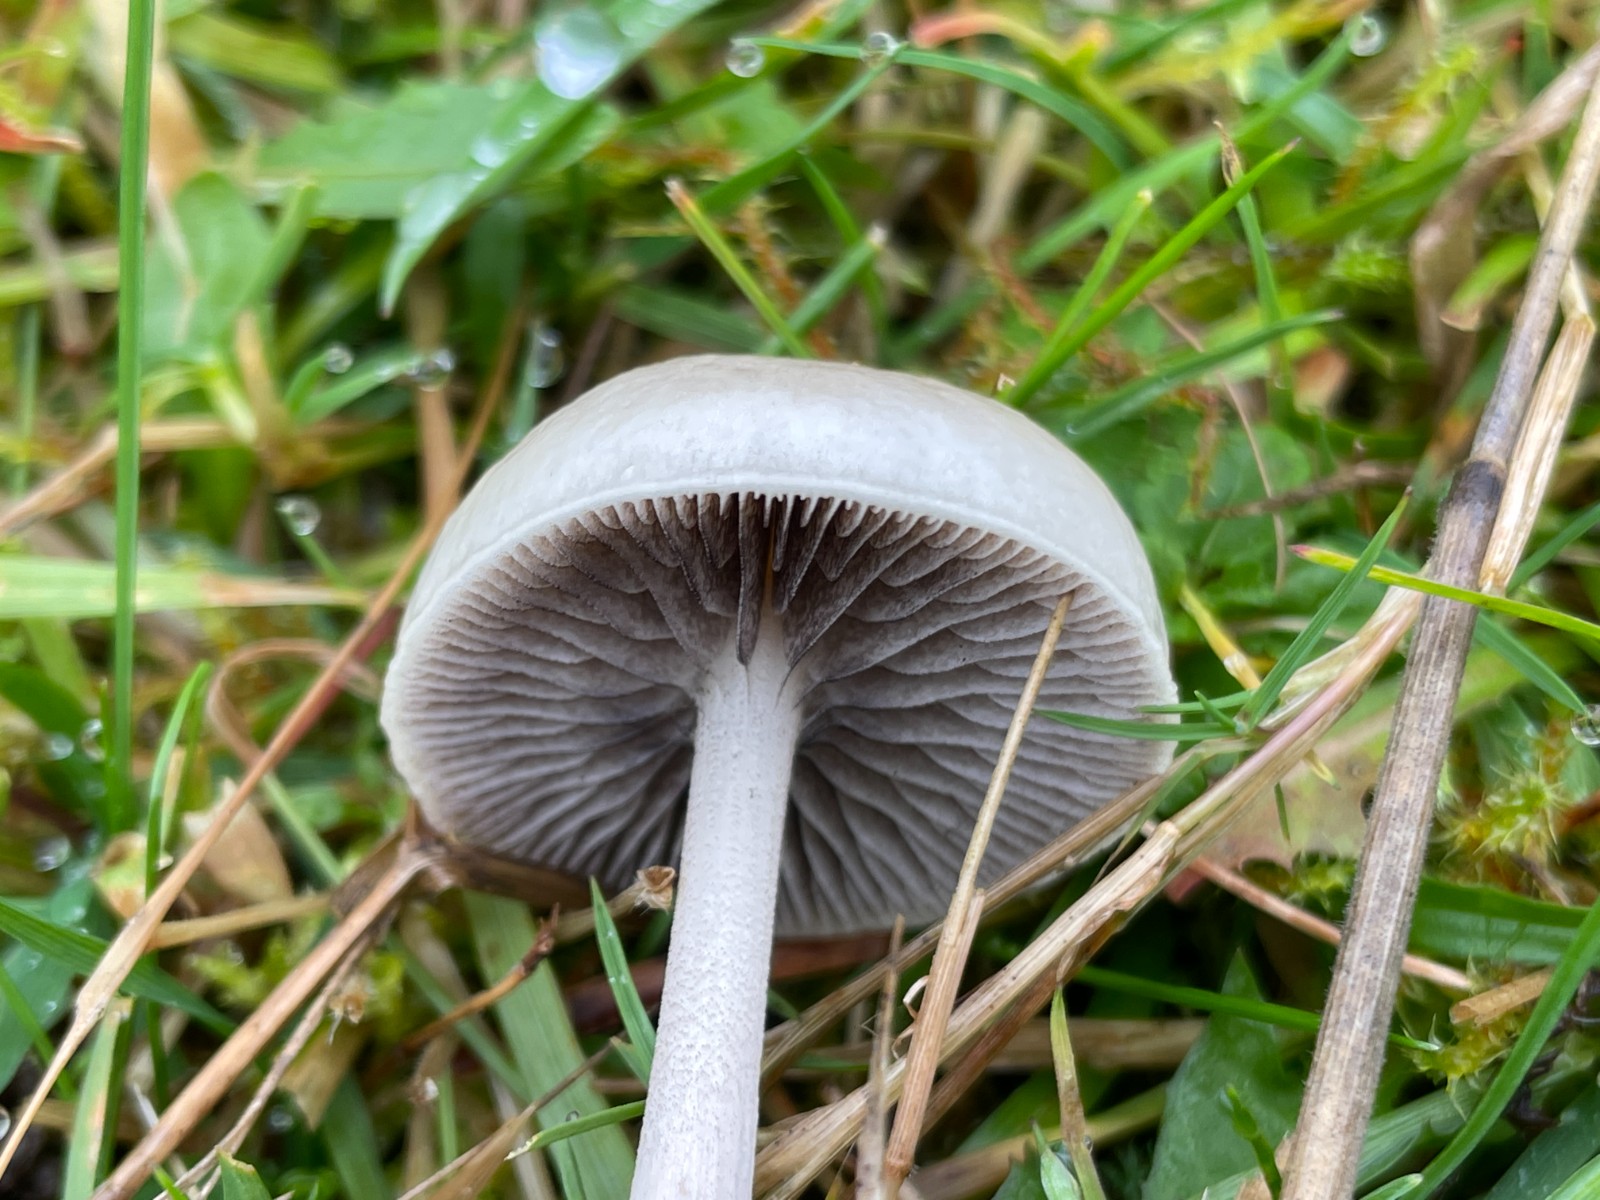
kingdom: Fungi
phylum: Basidiomycota
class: Agaricomycetes
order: Agaricales
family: Strophariaceae
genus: Protostropharia
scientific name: Protostropharia semiglobata
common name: halvkugleformet bredblad
